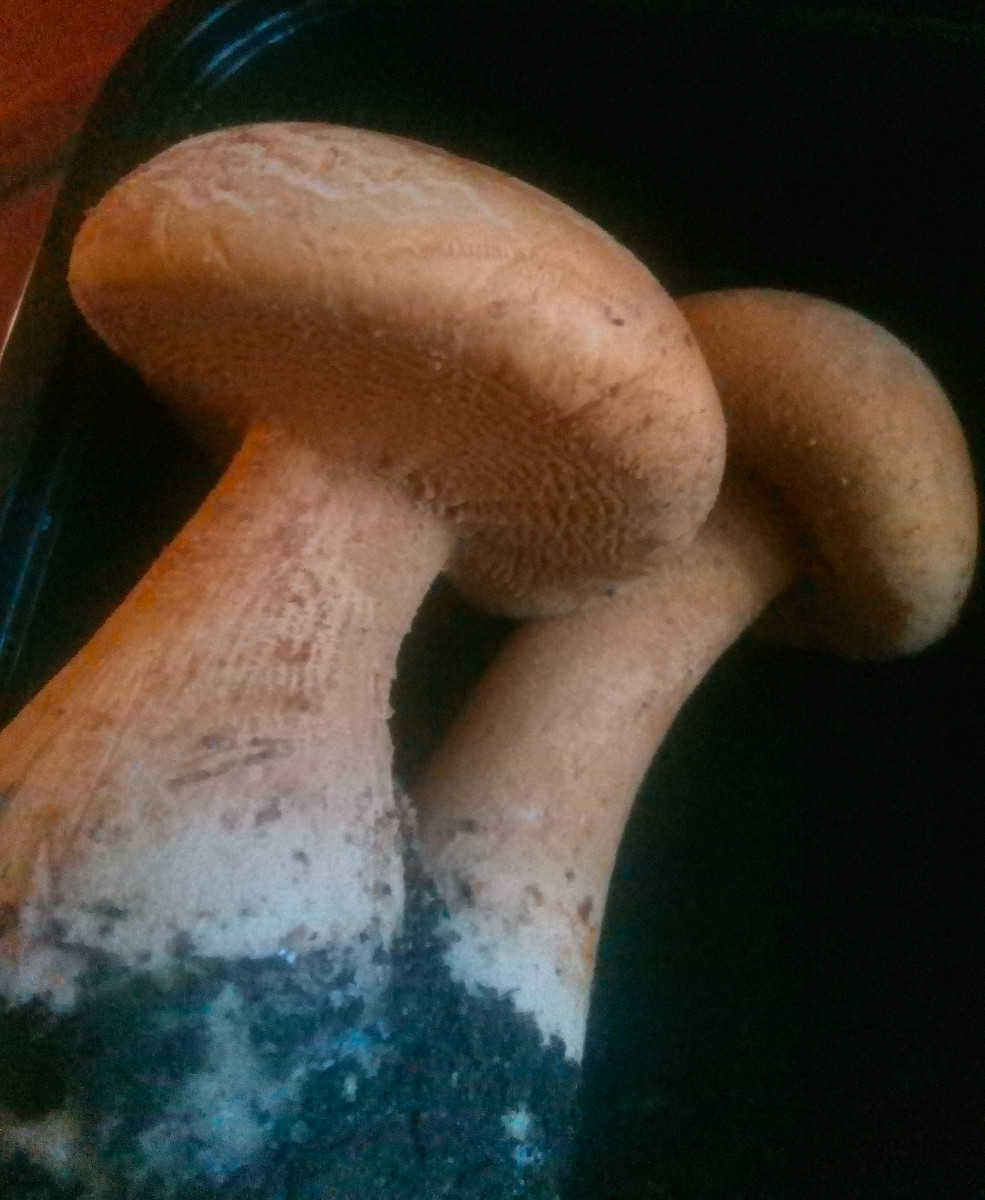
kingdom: Fungi
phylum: Basidiomycota
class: Agaricomycetes
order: Agaricales
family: Tricholomataceae
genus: Phaeolepiota
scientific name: Phaeolepiota aurea
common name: gyldenhat
